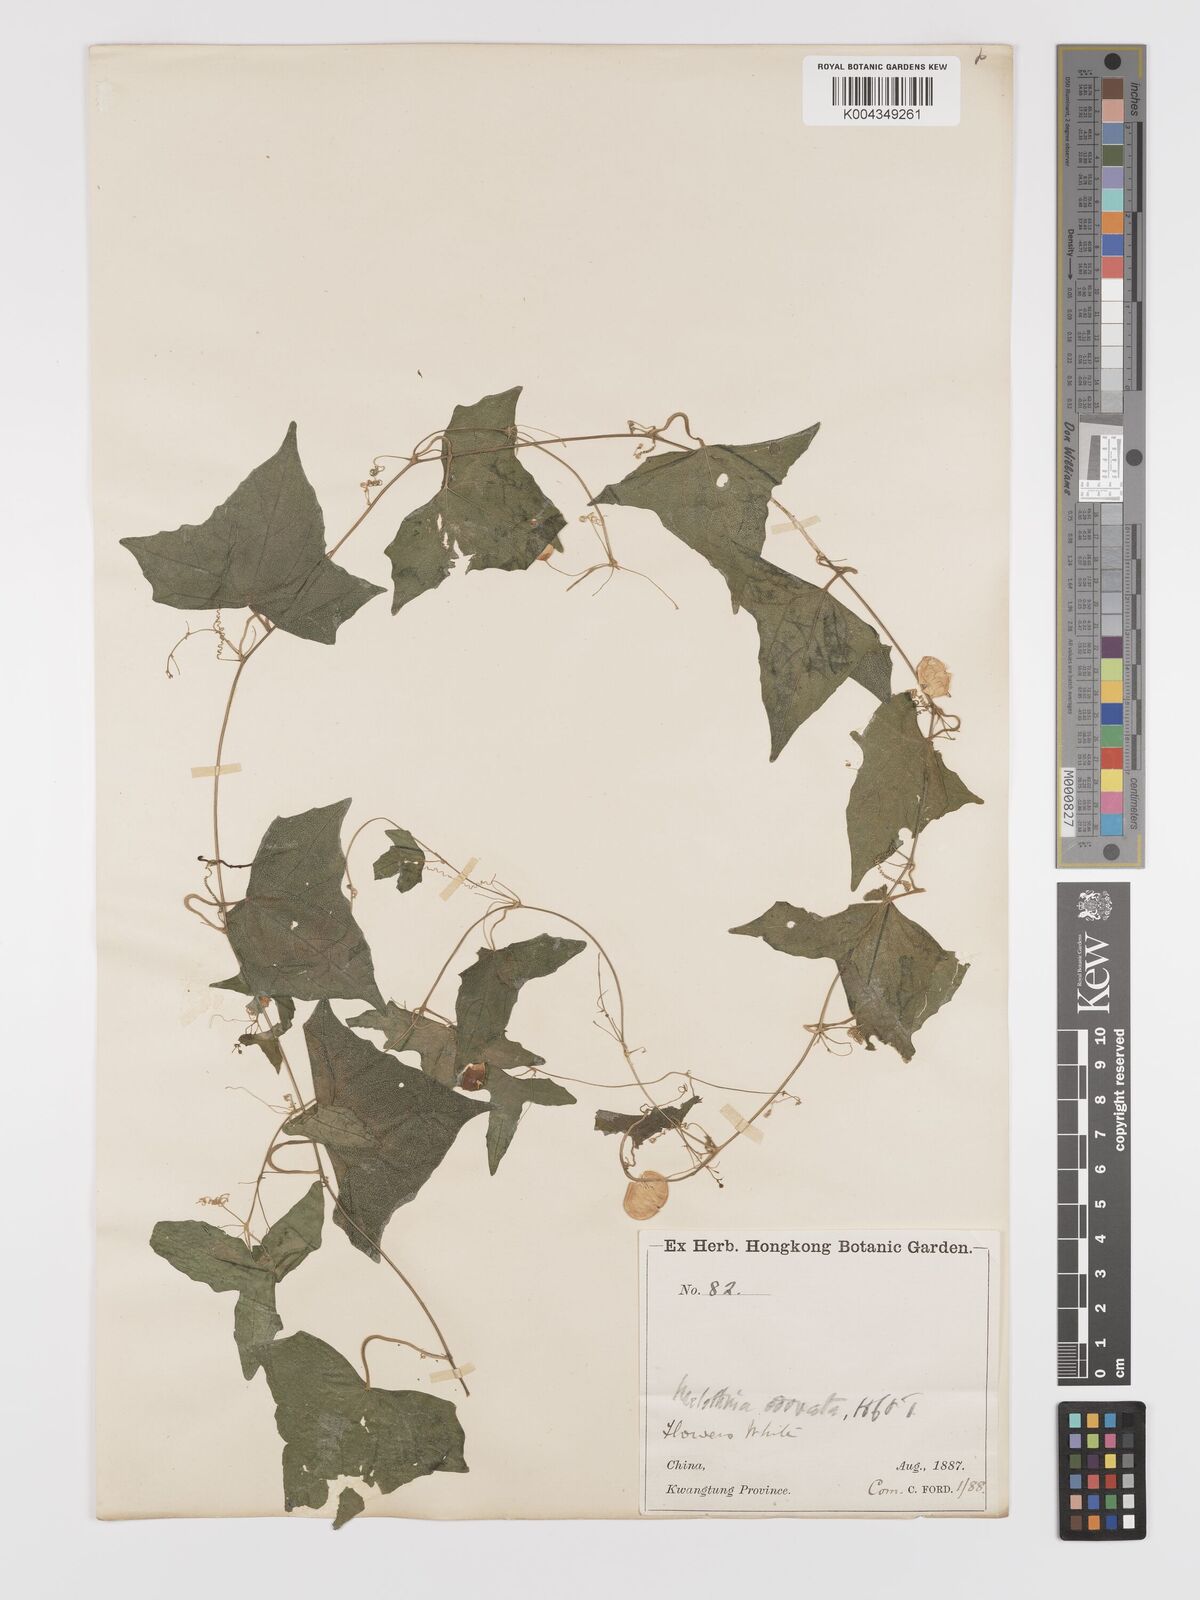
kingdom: Plantae
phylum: Tracheophyta
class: Magnoliopsida
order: Cucurbitales
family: Cucurbitaceae
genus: Zehneria
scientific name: Zehneria japonica
